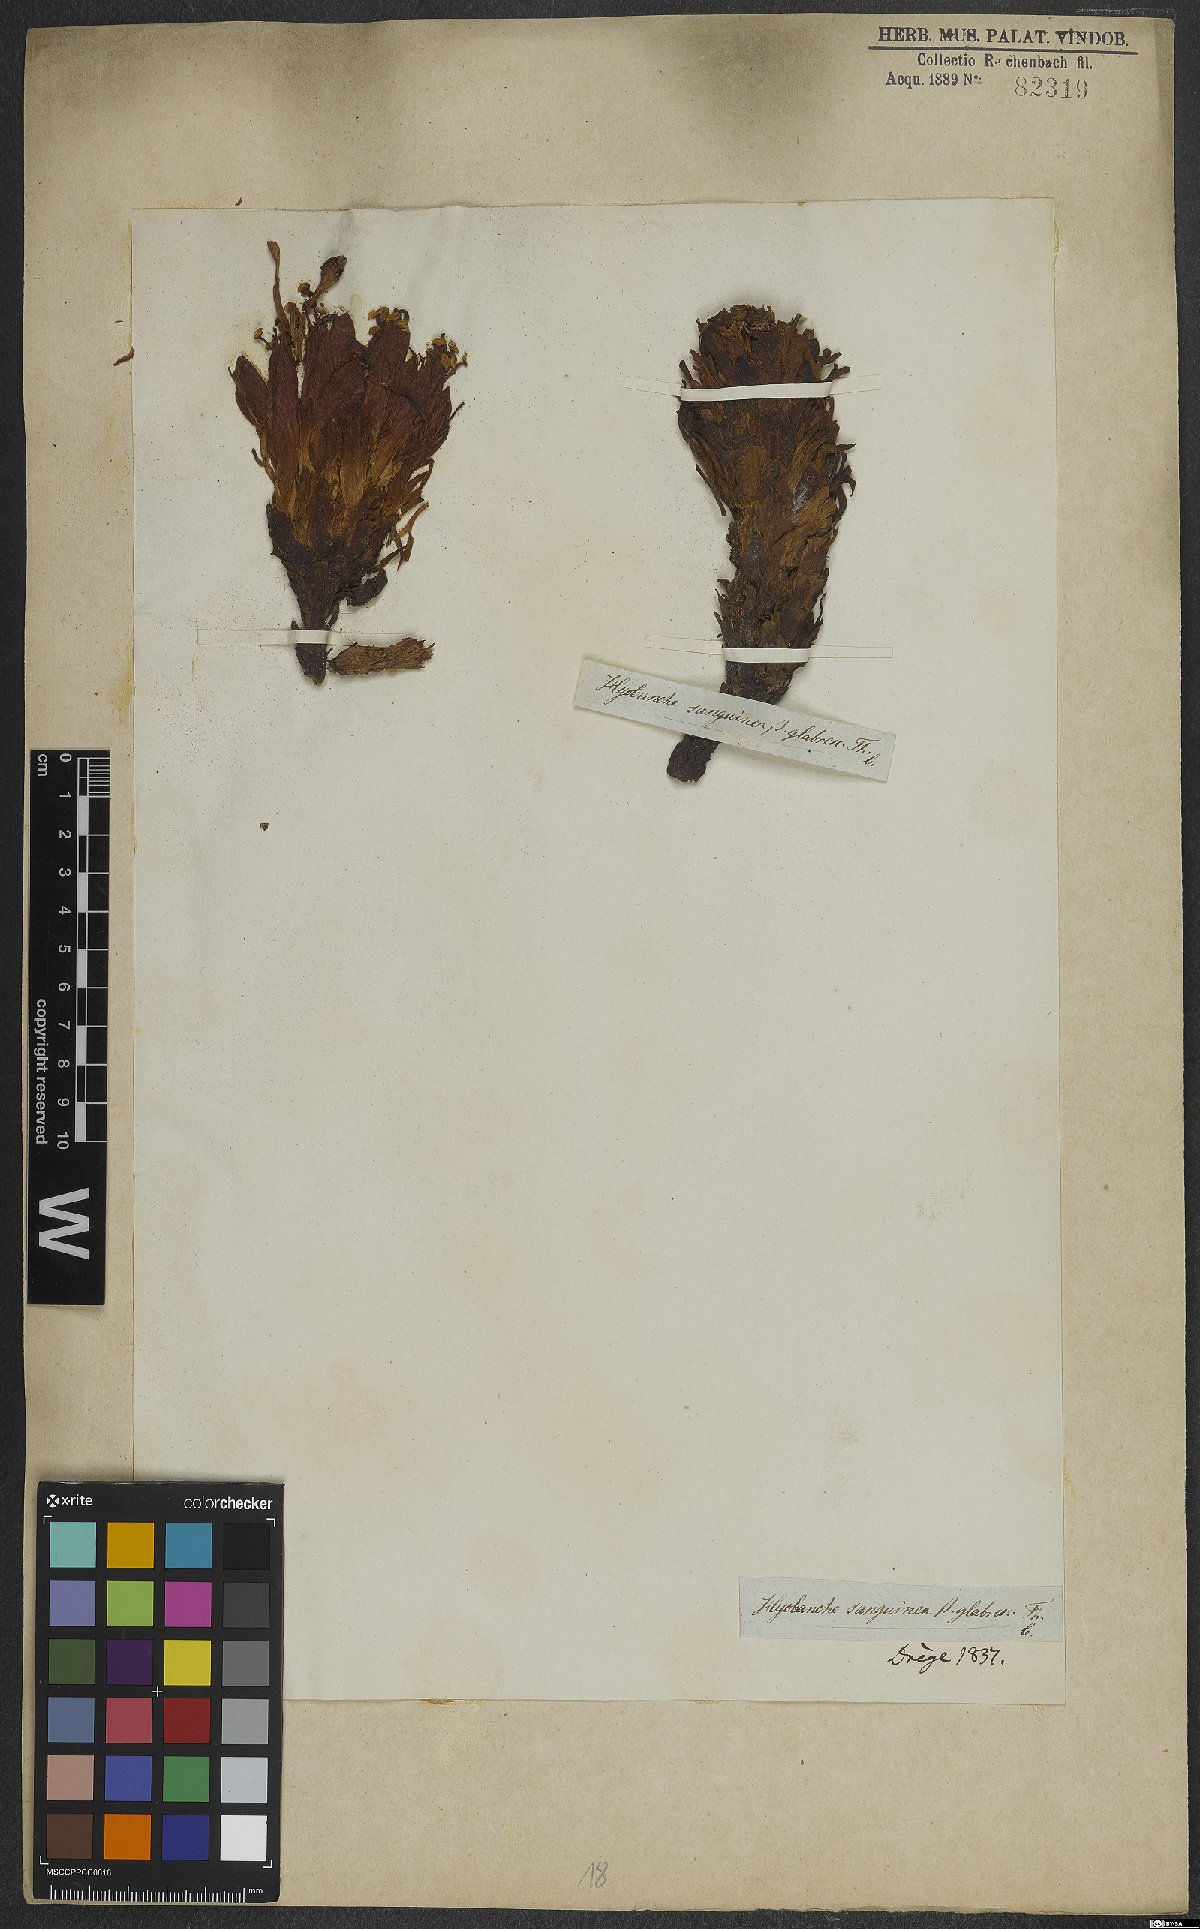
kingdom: Plantae
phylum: Tracheophyta
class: Magnoliopsida
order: Lamiales
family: Orobanchaceae
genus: Hyobanche
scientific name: Hyobanche sanguinea
